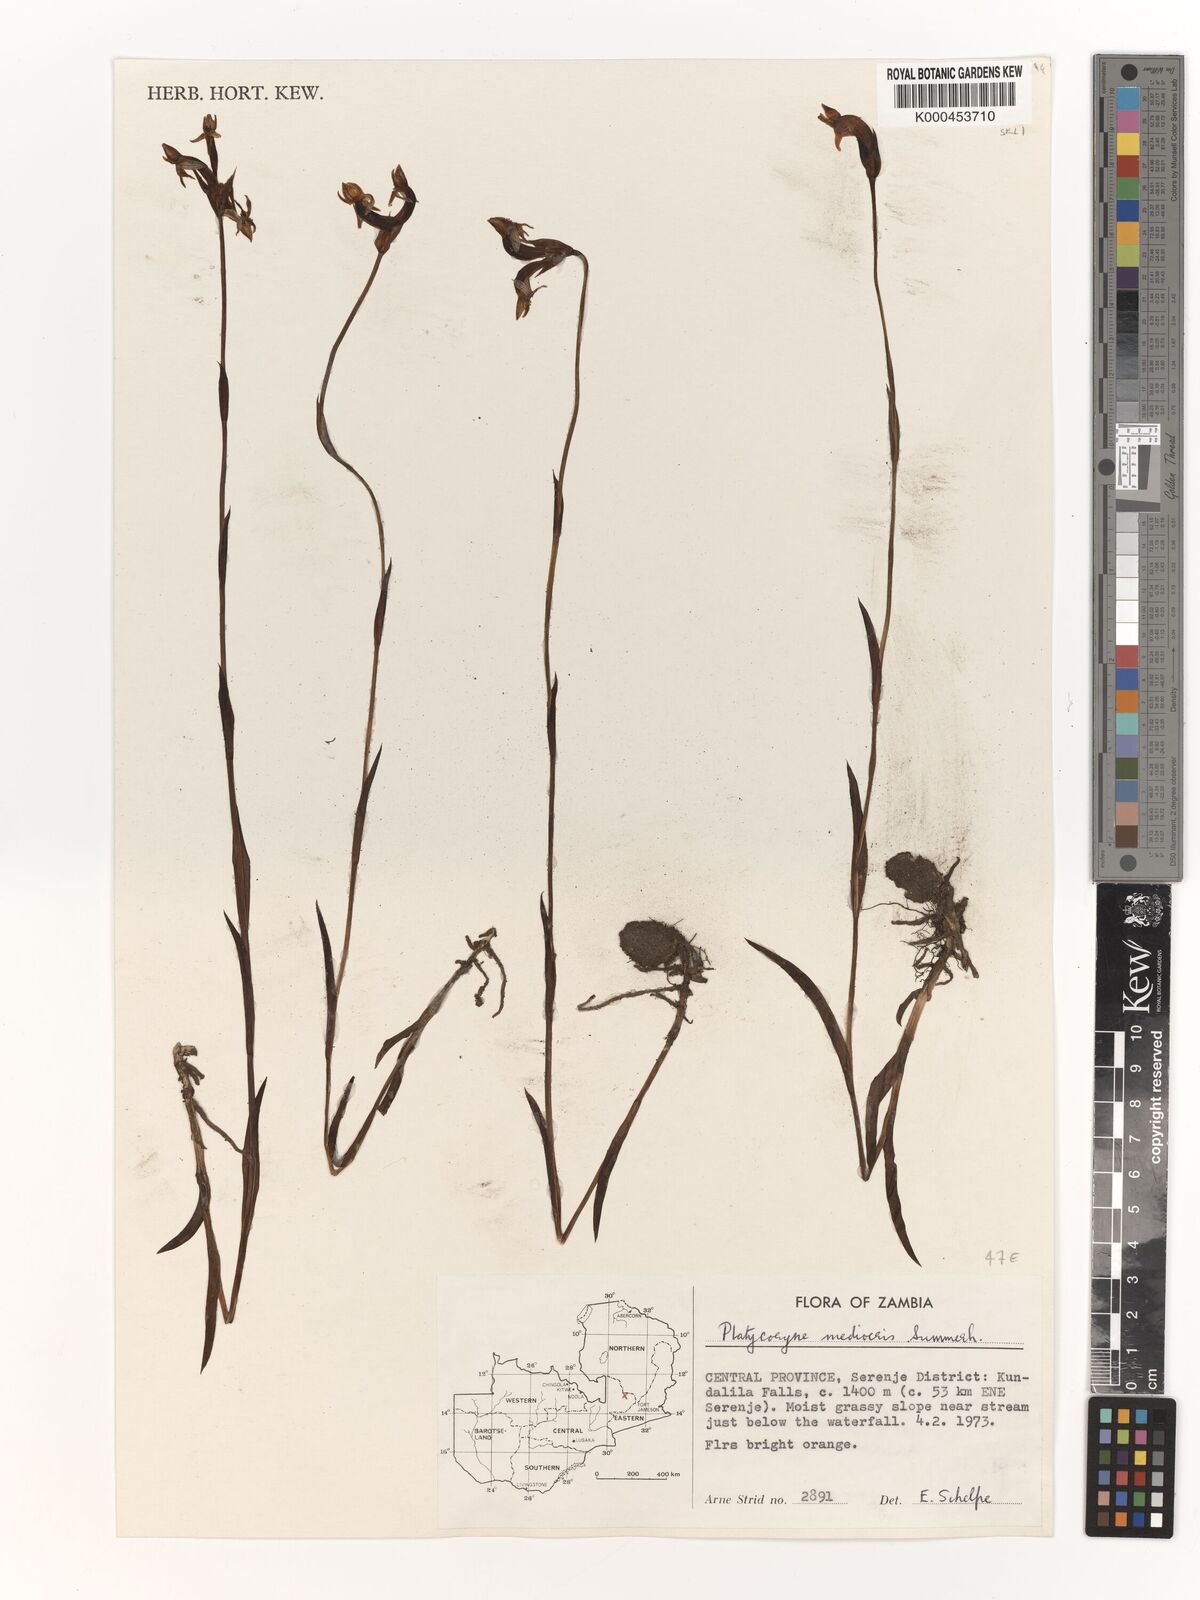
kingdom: Plantae
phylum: Tracheophyta
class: Liliopsida
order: Asparagales
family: Orchidaceae
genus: Platycoryne
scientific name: Platycoryne mediocris
